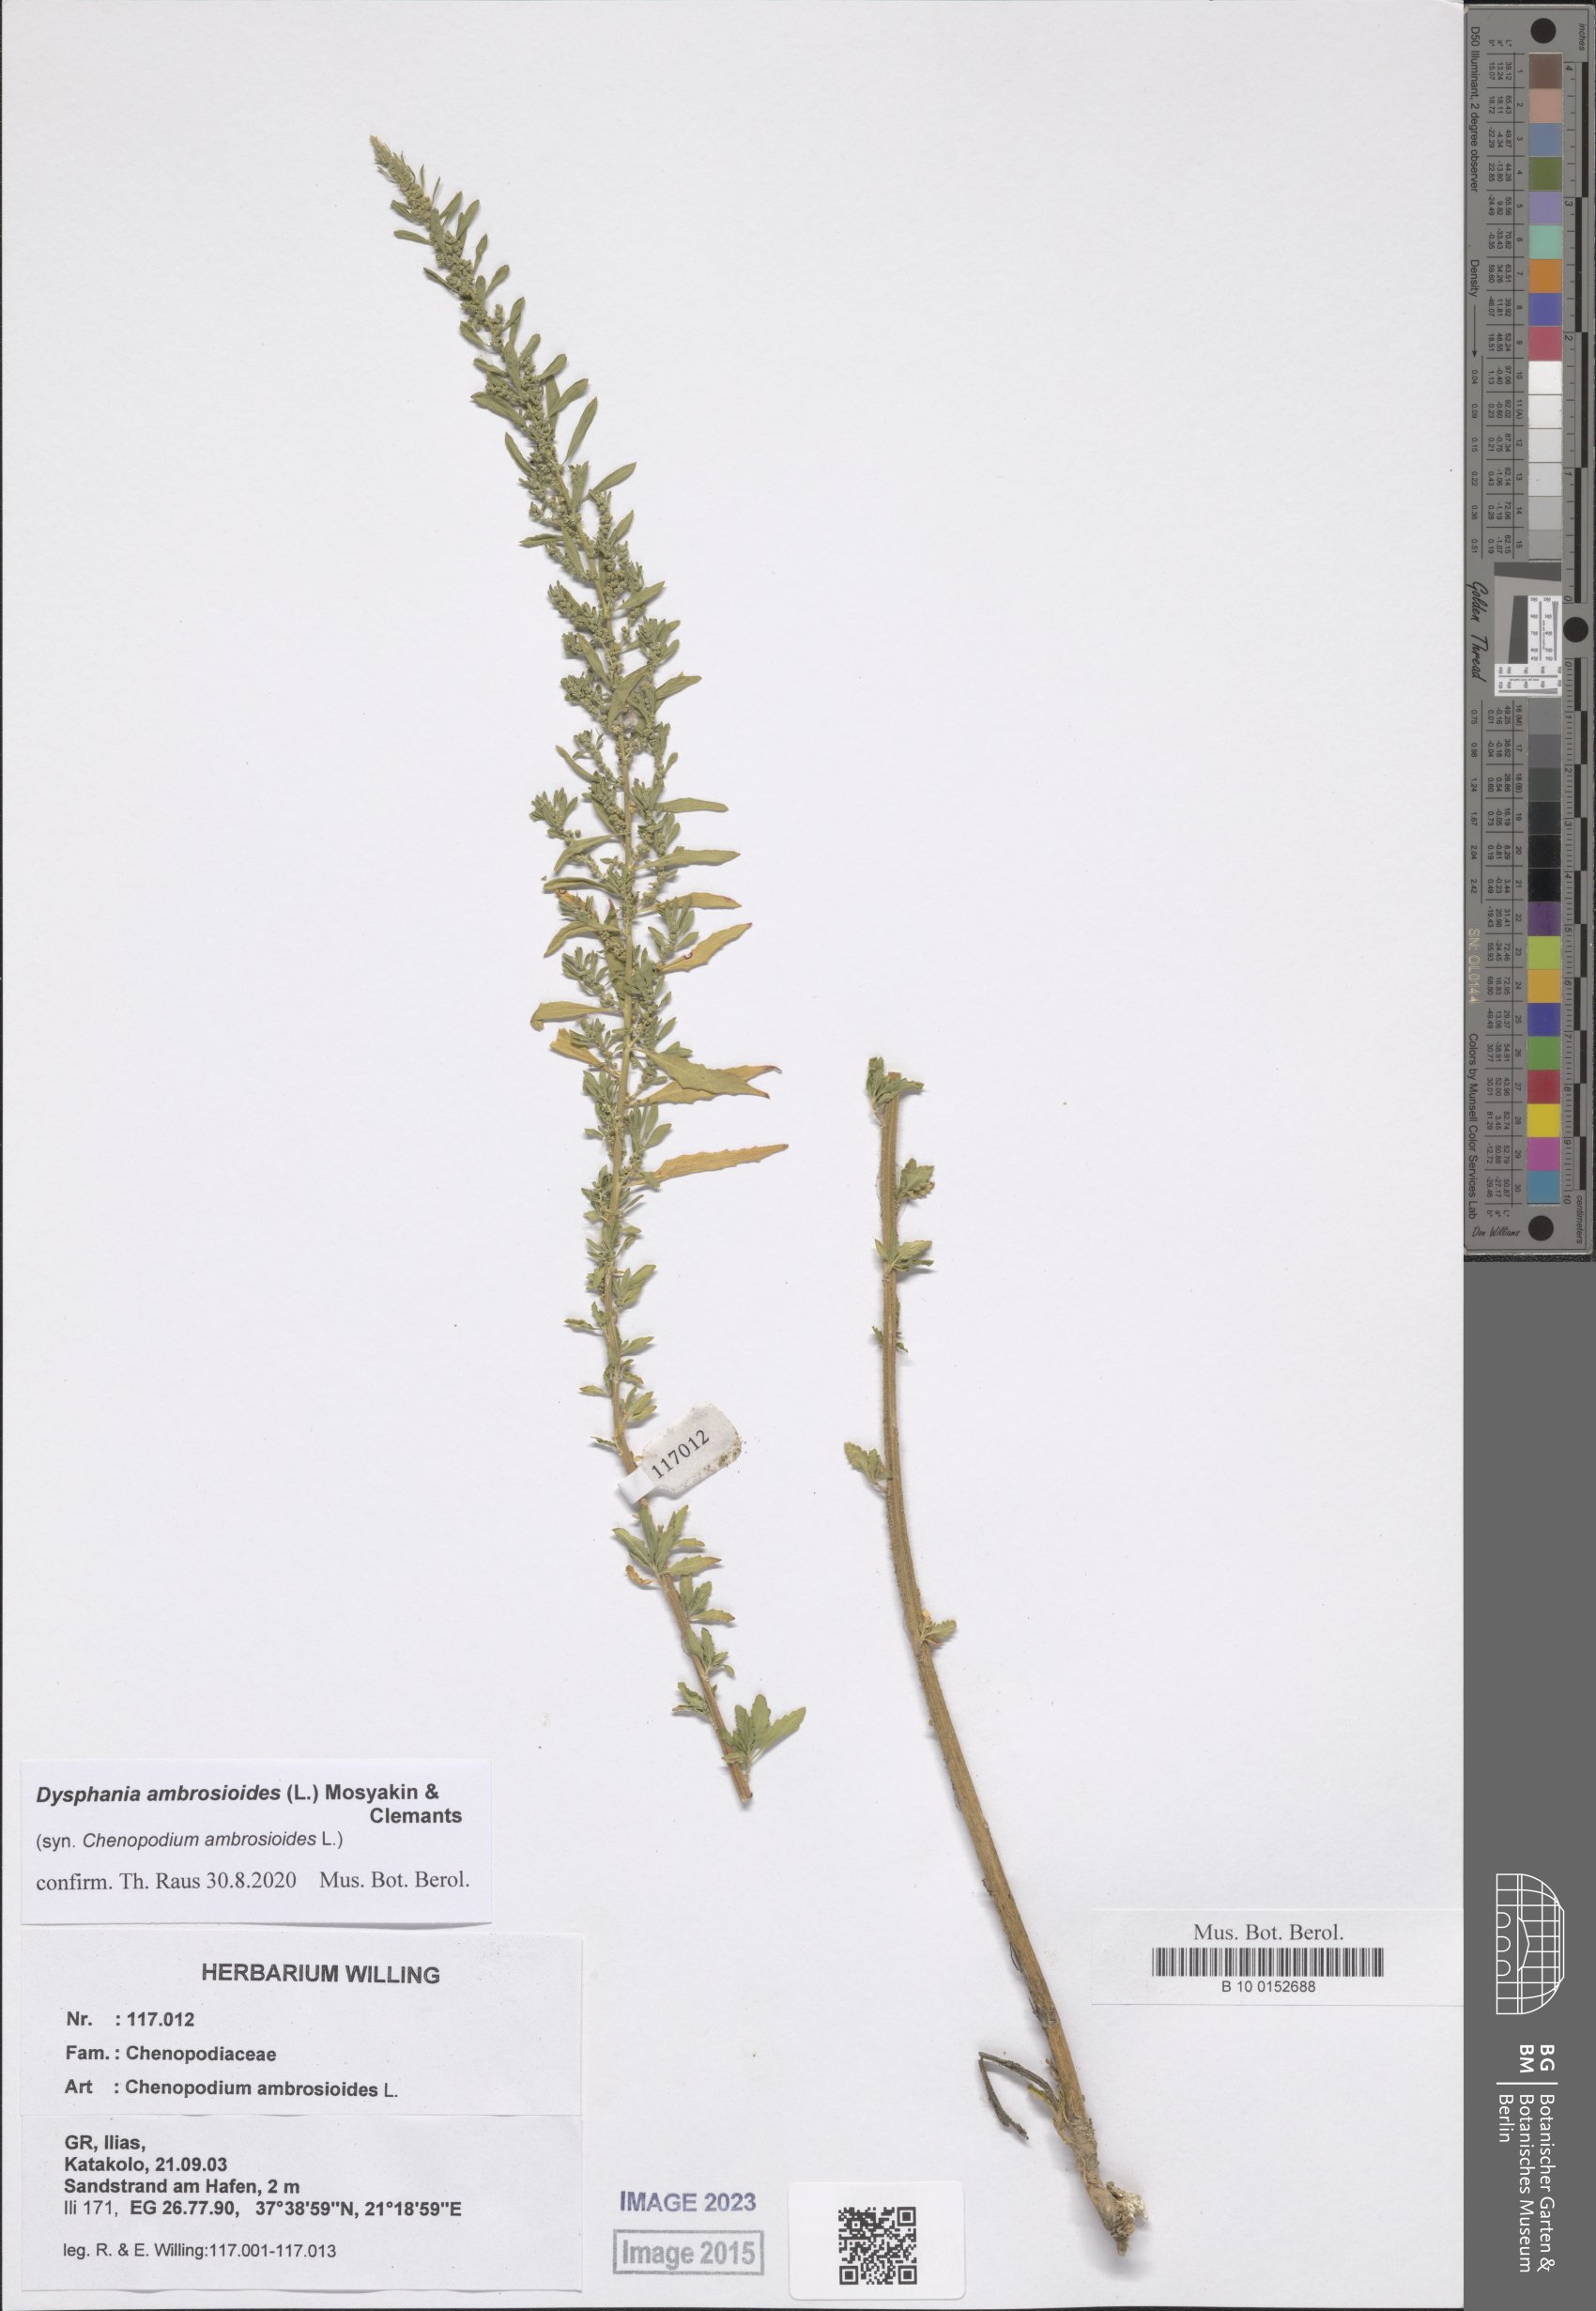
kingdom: Plantae
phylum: Tracheophyta
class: Magnoliopsida
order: Caryophyllales
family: Amaranthaceae
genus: Dysphania
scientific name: Dysphania ambrosioides
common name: Wormseed
